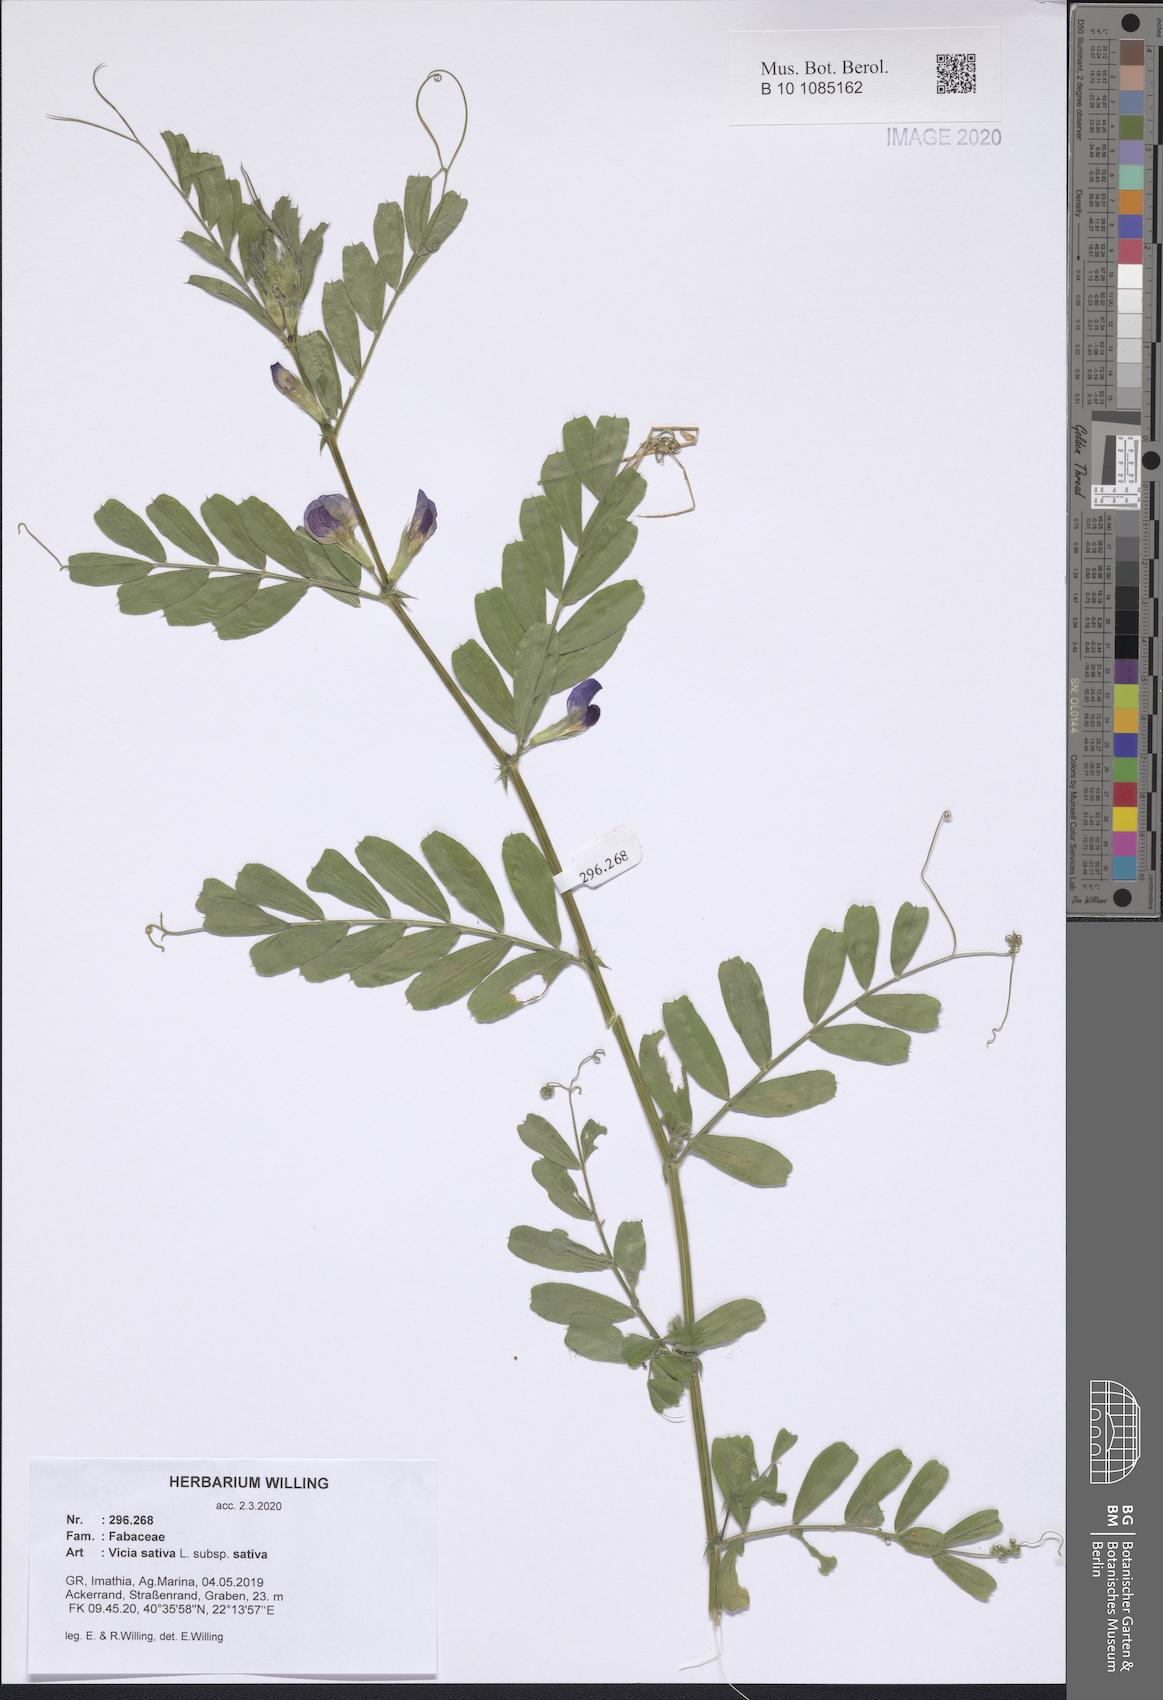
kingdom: Plantae
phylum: Tracheophyta
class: Magnoliopsida
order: Fabales
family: Fabaceae
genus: Vicia
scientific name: Vicia sativa
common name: Garden vetch
